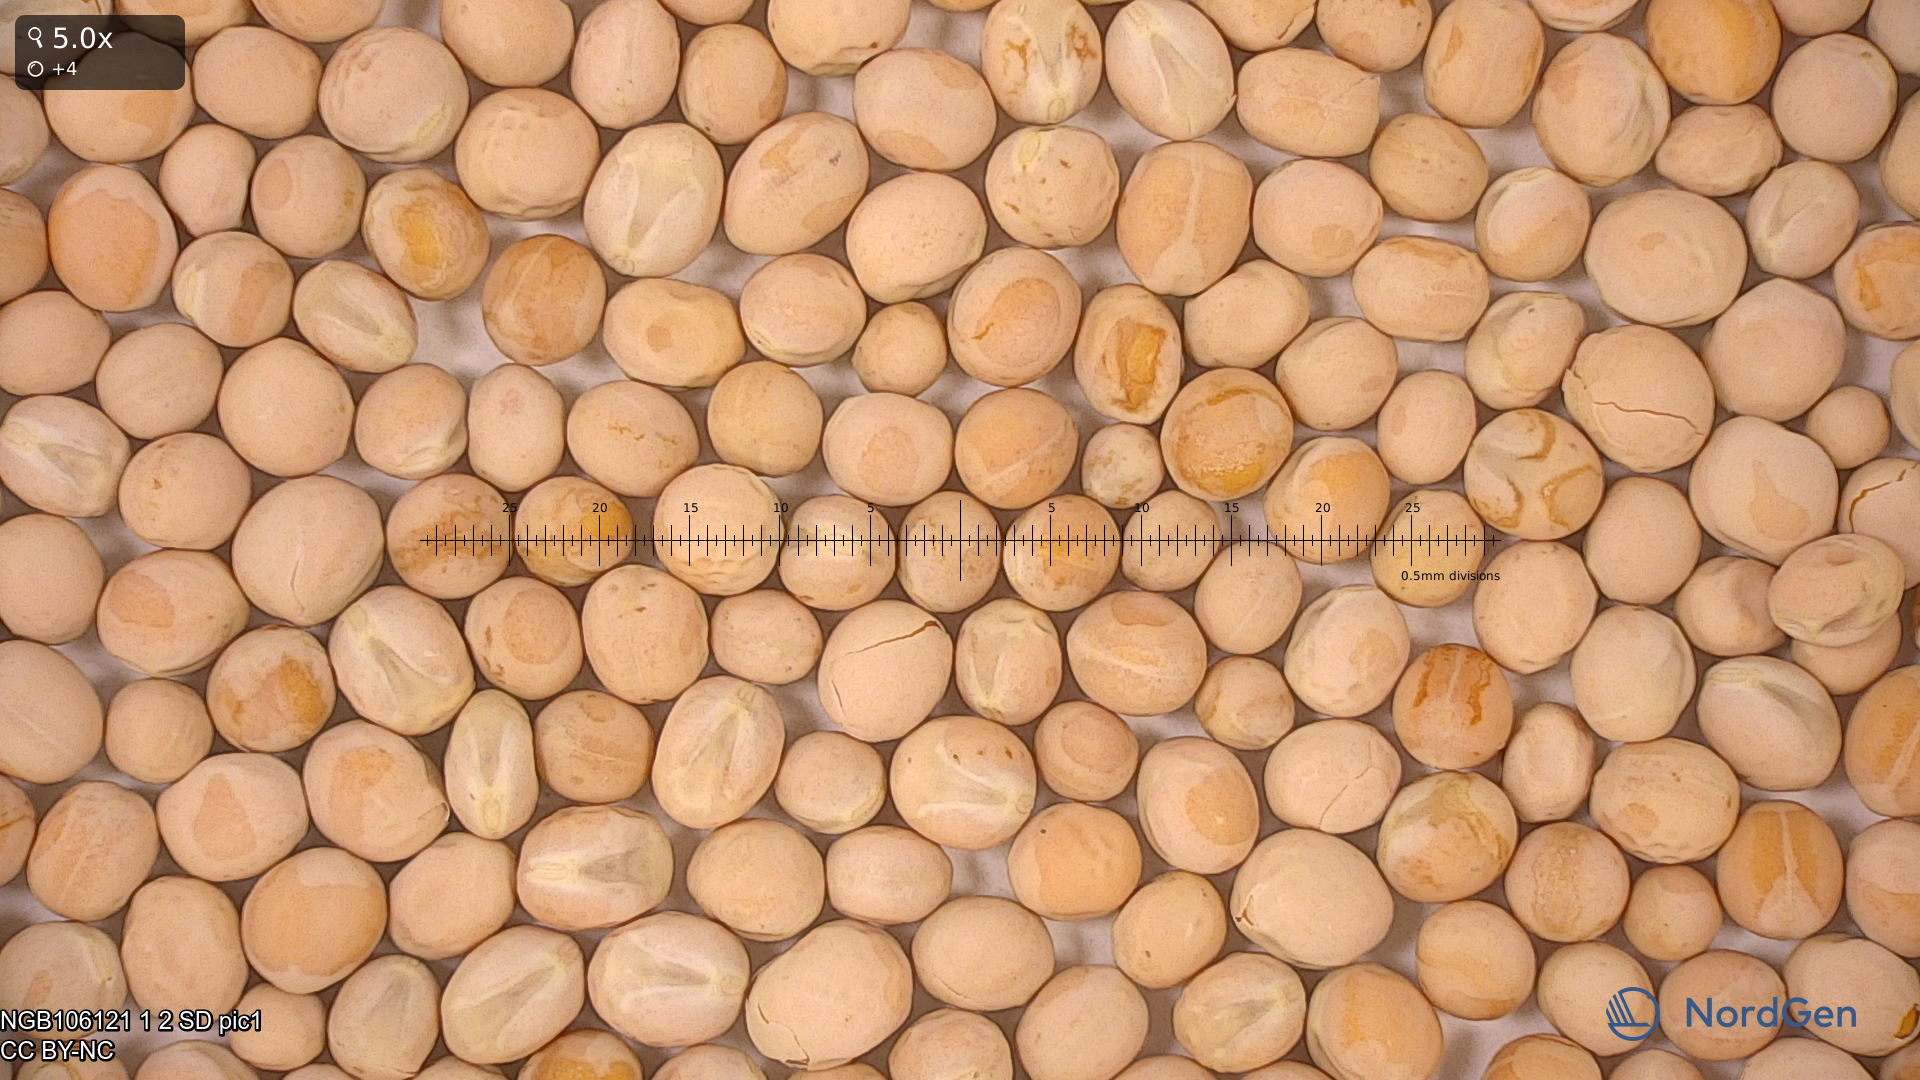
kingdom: Plantae
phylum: Tracheophyta
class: Magnoliopsida
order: Fabales
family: Fabaceae
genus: Lathyrus
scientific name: Lathyrus oleraceus
